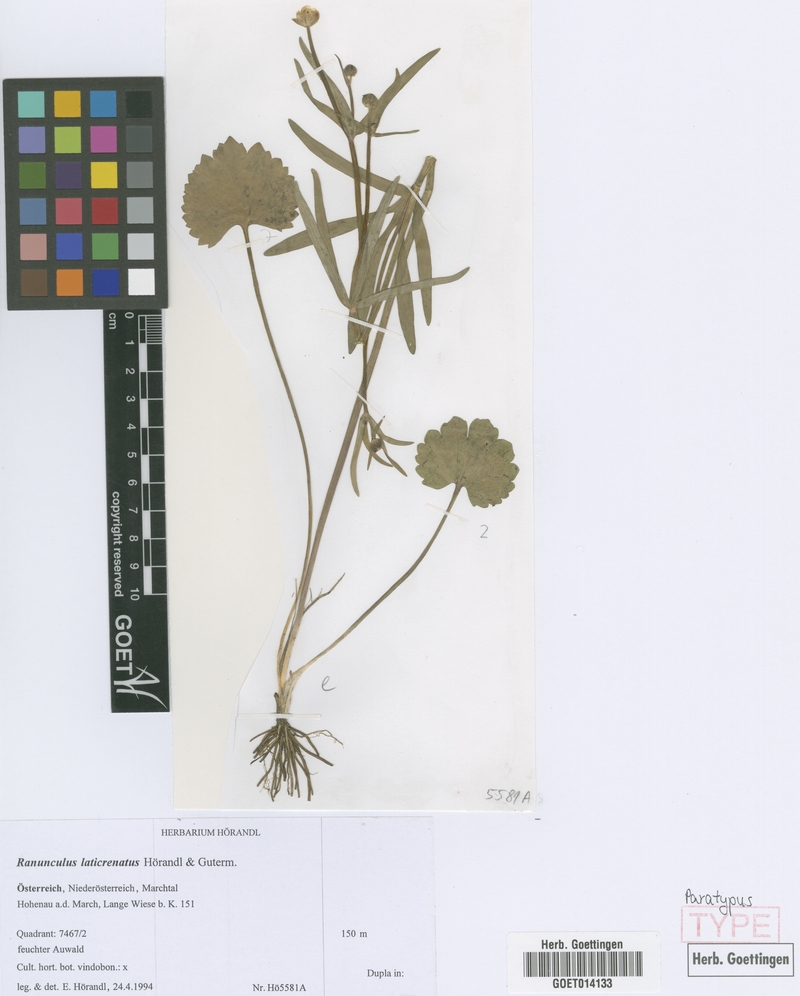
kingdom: Plantae
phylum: Tracheophyta
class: Magnoliopsida
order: Ranunculales
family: Ranunculaceae
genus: Ranunculus
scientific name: Ranunculus laticrenatus
